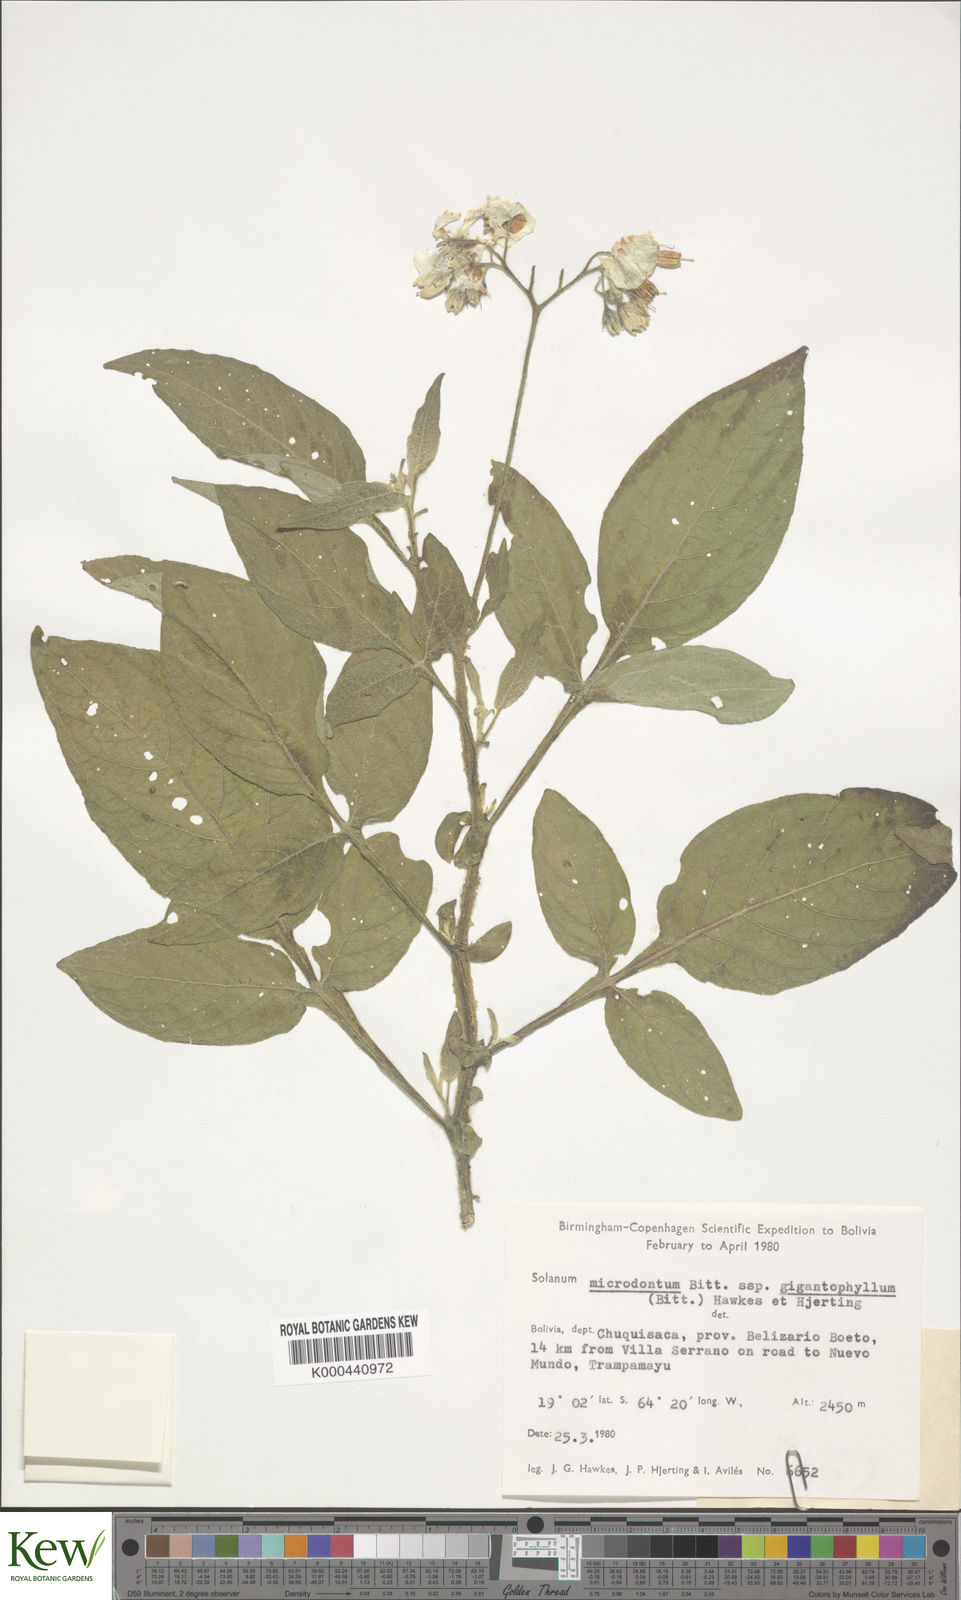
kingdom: Plantae
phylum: Tracheophyta
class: Magnoliopsida
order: Solanales
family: Solanaceae
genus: Solanum
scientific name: Solanum microdontum
